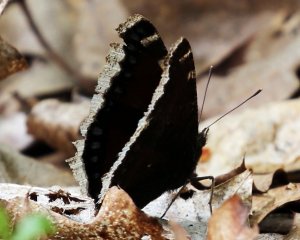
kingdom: Animalia
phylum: Arthropoda
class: Insecta
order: Lepidoptera
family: Nymphalidae
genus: Nymphalis
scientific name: Nymphalis antiopa
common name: Mourning Cloak
